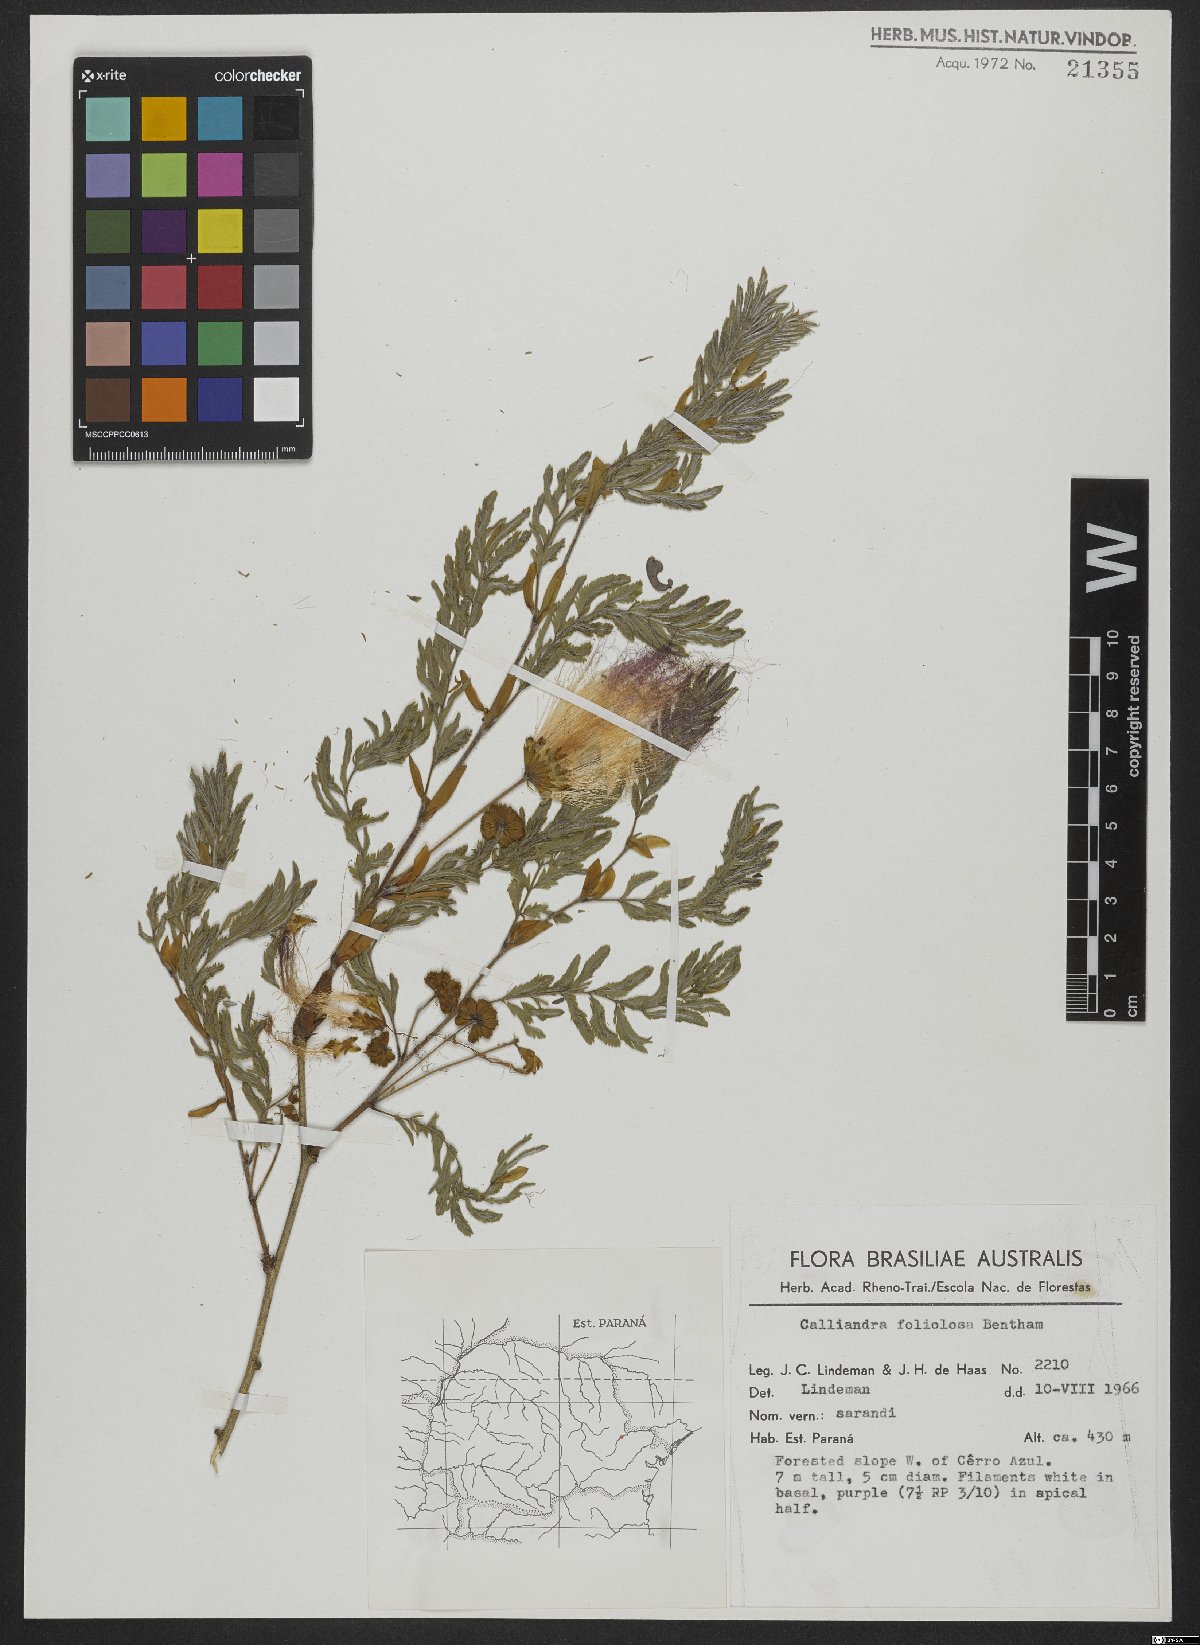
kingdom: Plantae
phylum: Tracheophyta
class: Magnoliopsida
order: Fabales
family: Fabaceae
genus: Calliandra
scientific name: Calliandra foliolosa
